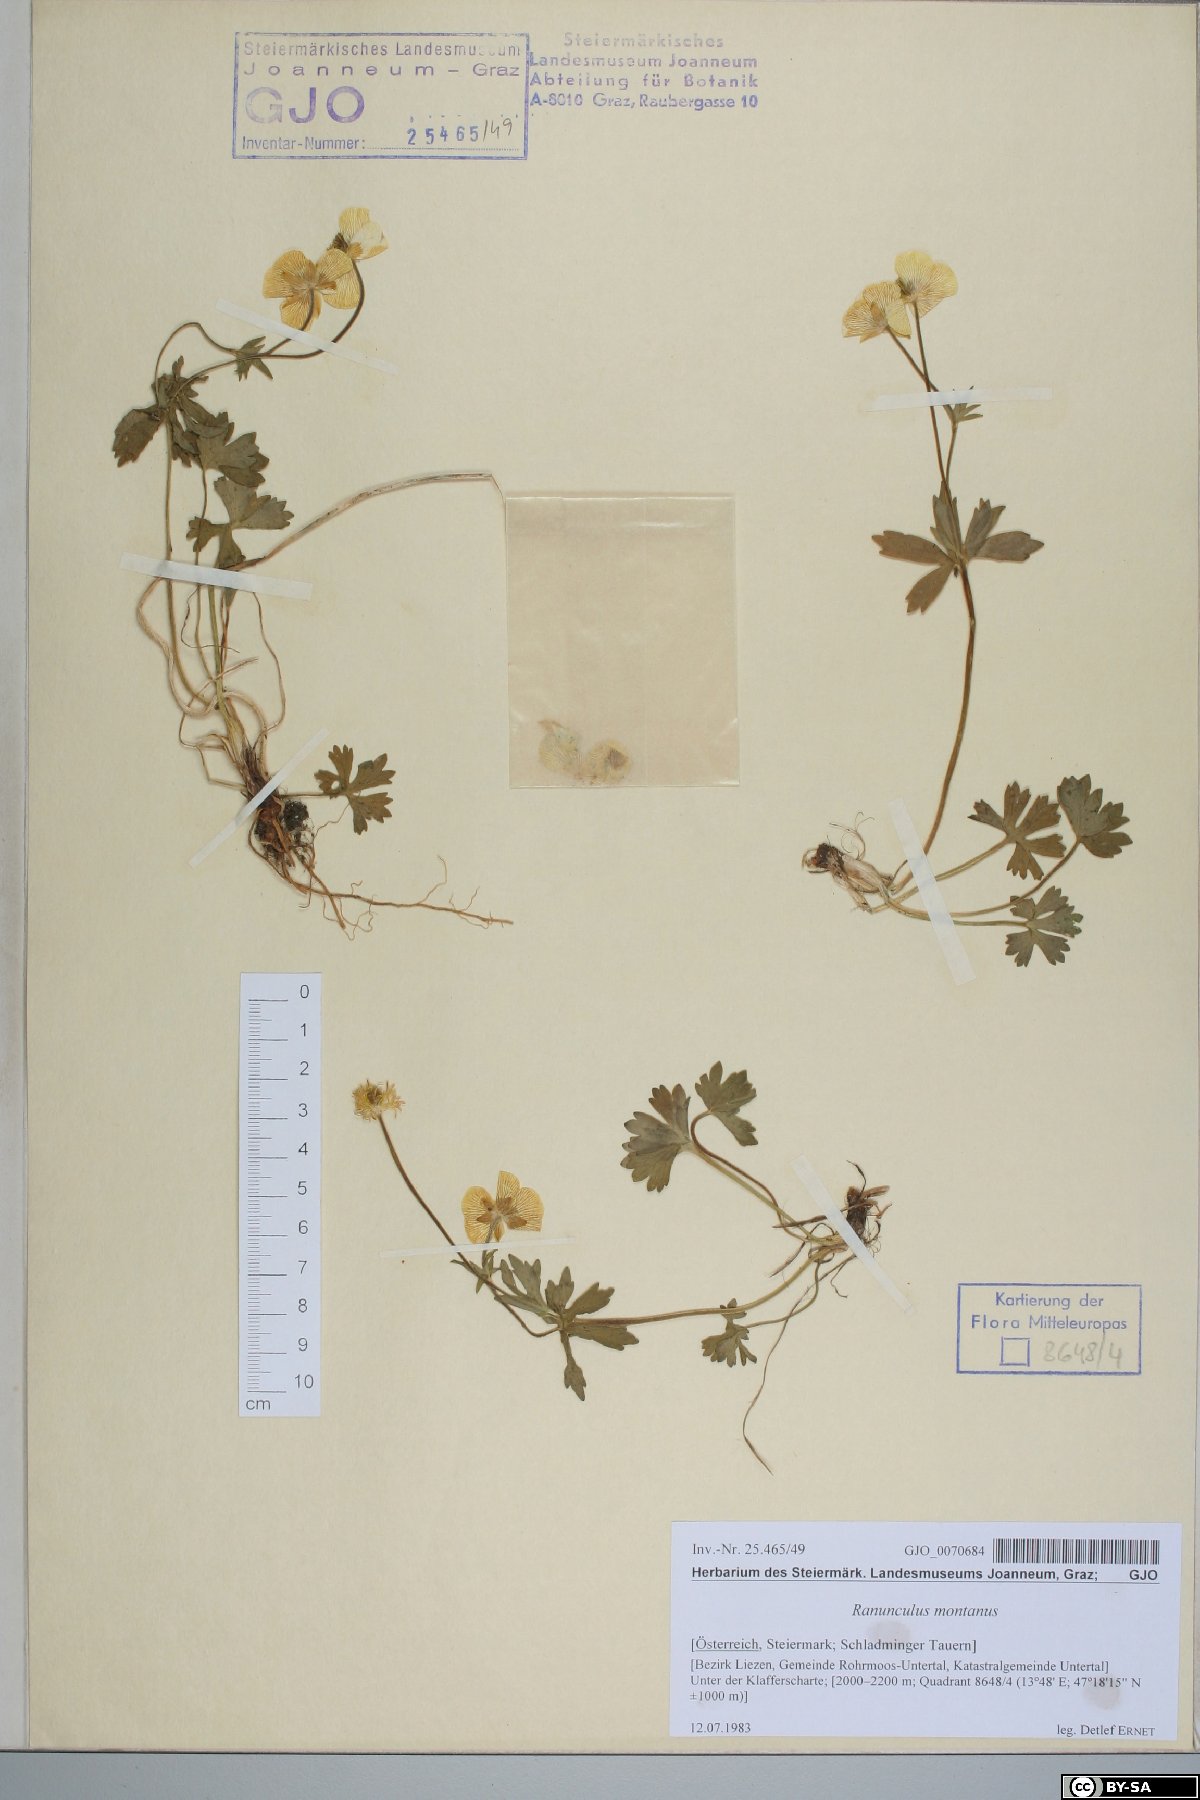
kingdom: Plantae
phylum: Tracheophyta
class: Magnoliopsida
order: Ranunculales
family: Ranunculaceae
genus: Ranunculus
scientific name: Ranunculus montanus
